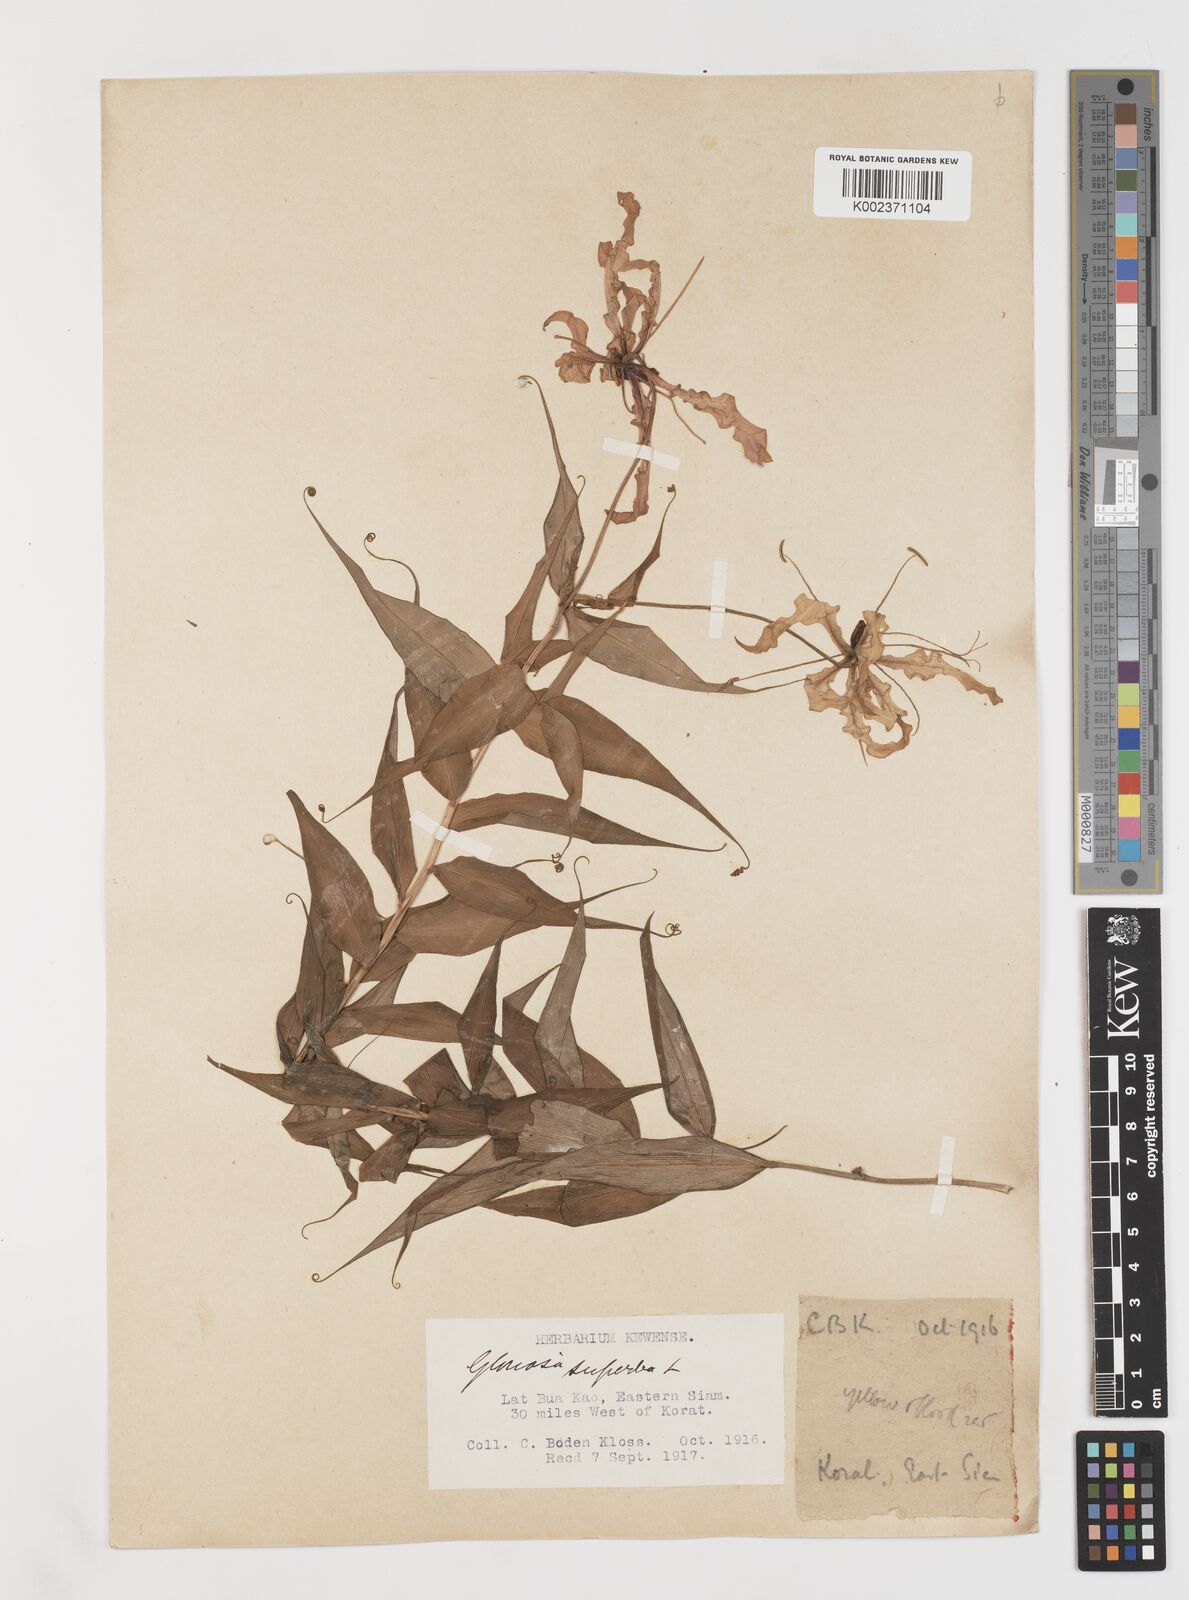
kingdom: Plantae
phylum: Tracheophyta
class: Liliopsida
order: Liliales
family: Colchicaceae
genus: Gloriosa
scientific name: Gloriosa superba
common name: Flame lily
